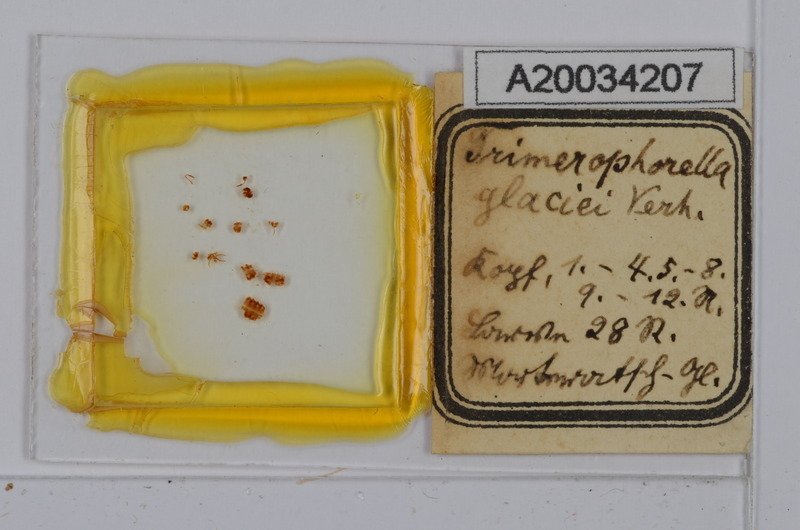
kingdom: Animalia
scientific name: Animalia
